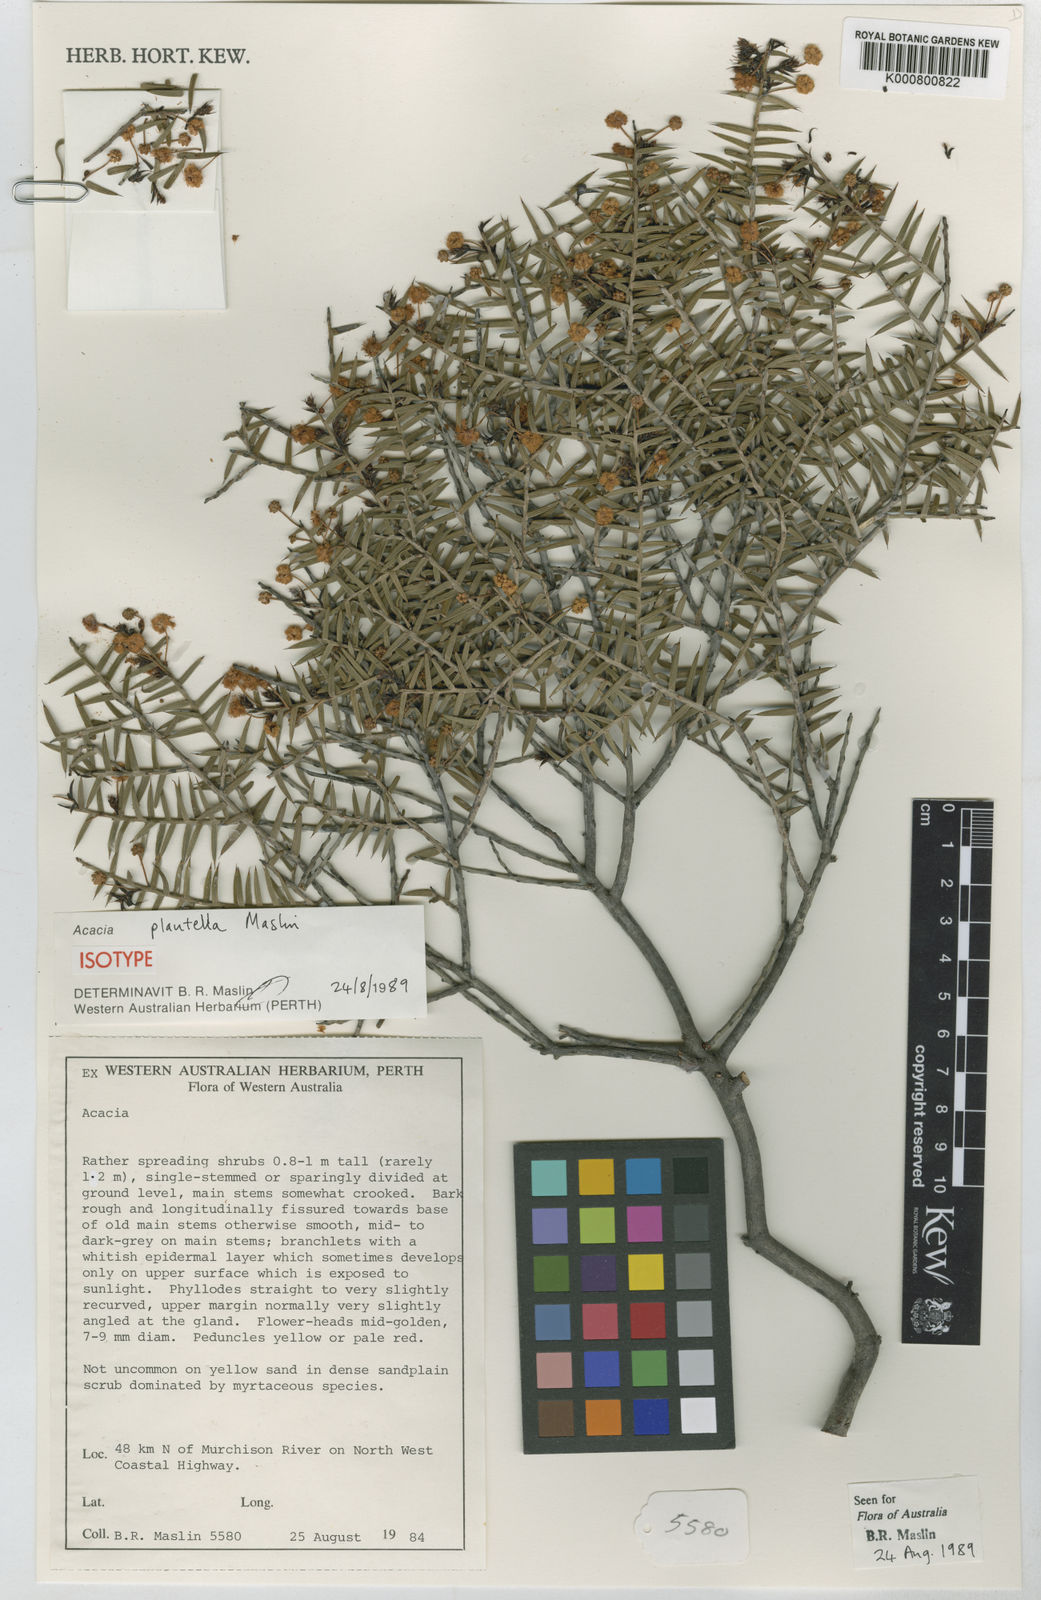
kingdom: Plantae
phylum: Tracheophyta
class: Magnoliopsida
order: Fabales
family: Fabaceae
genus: Acacia
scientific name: Acacia plautella
